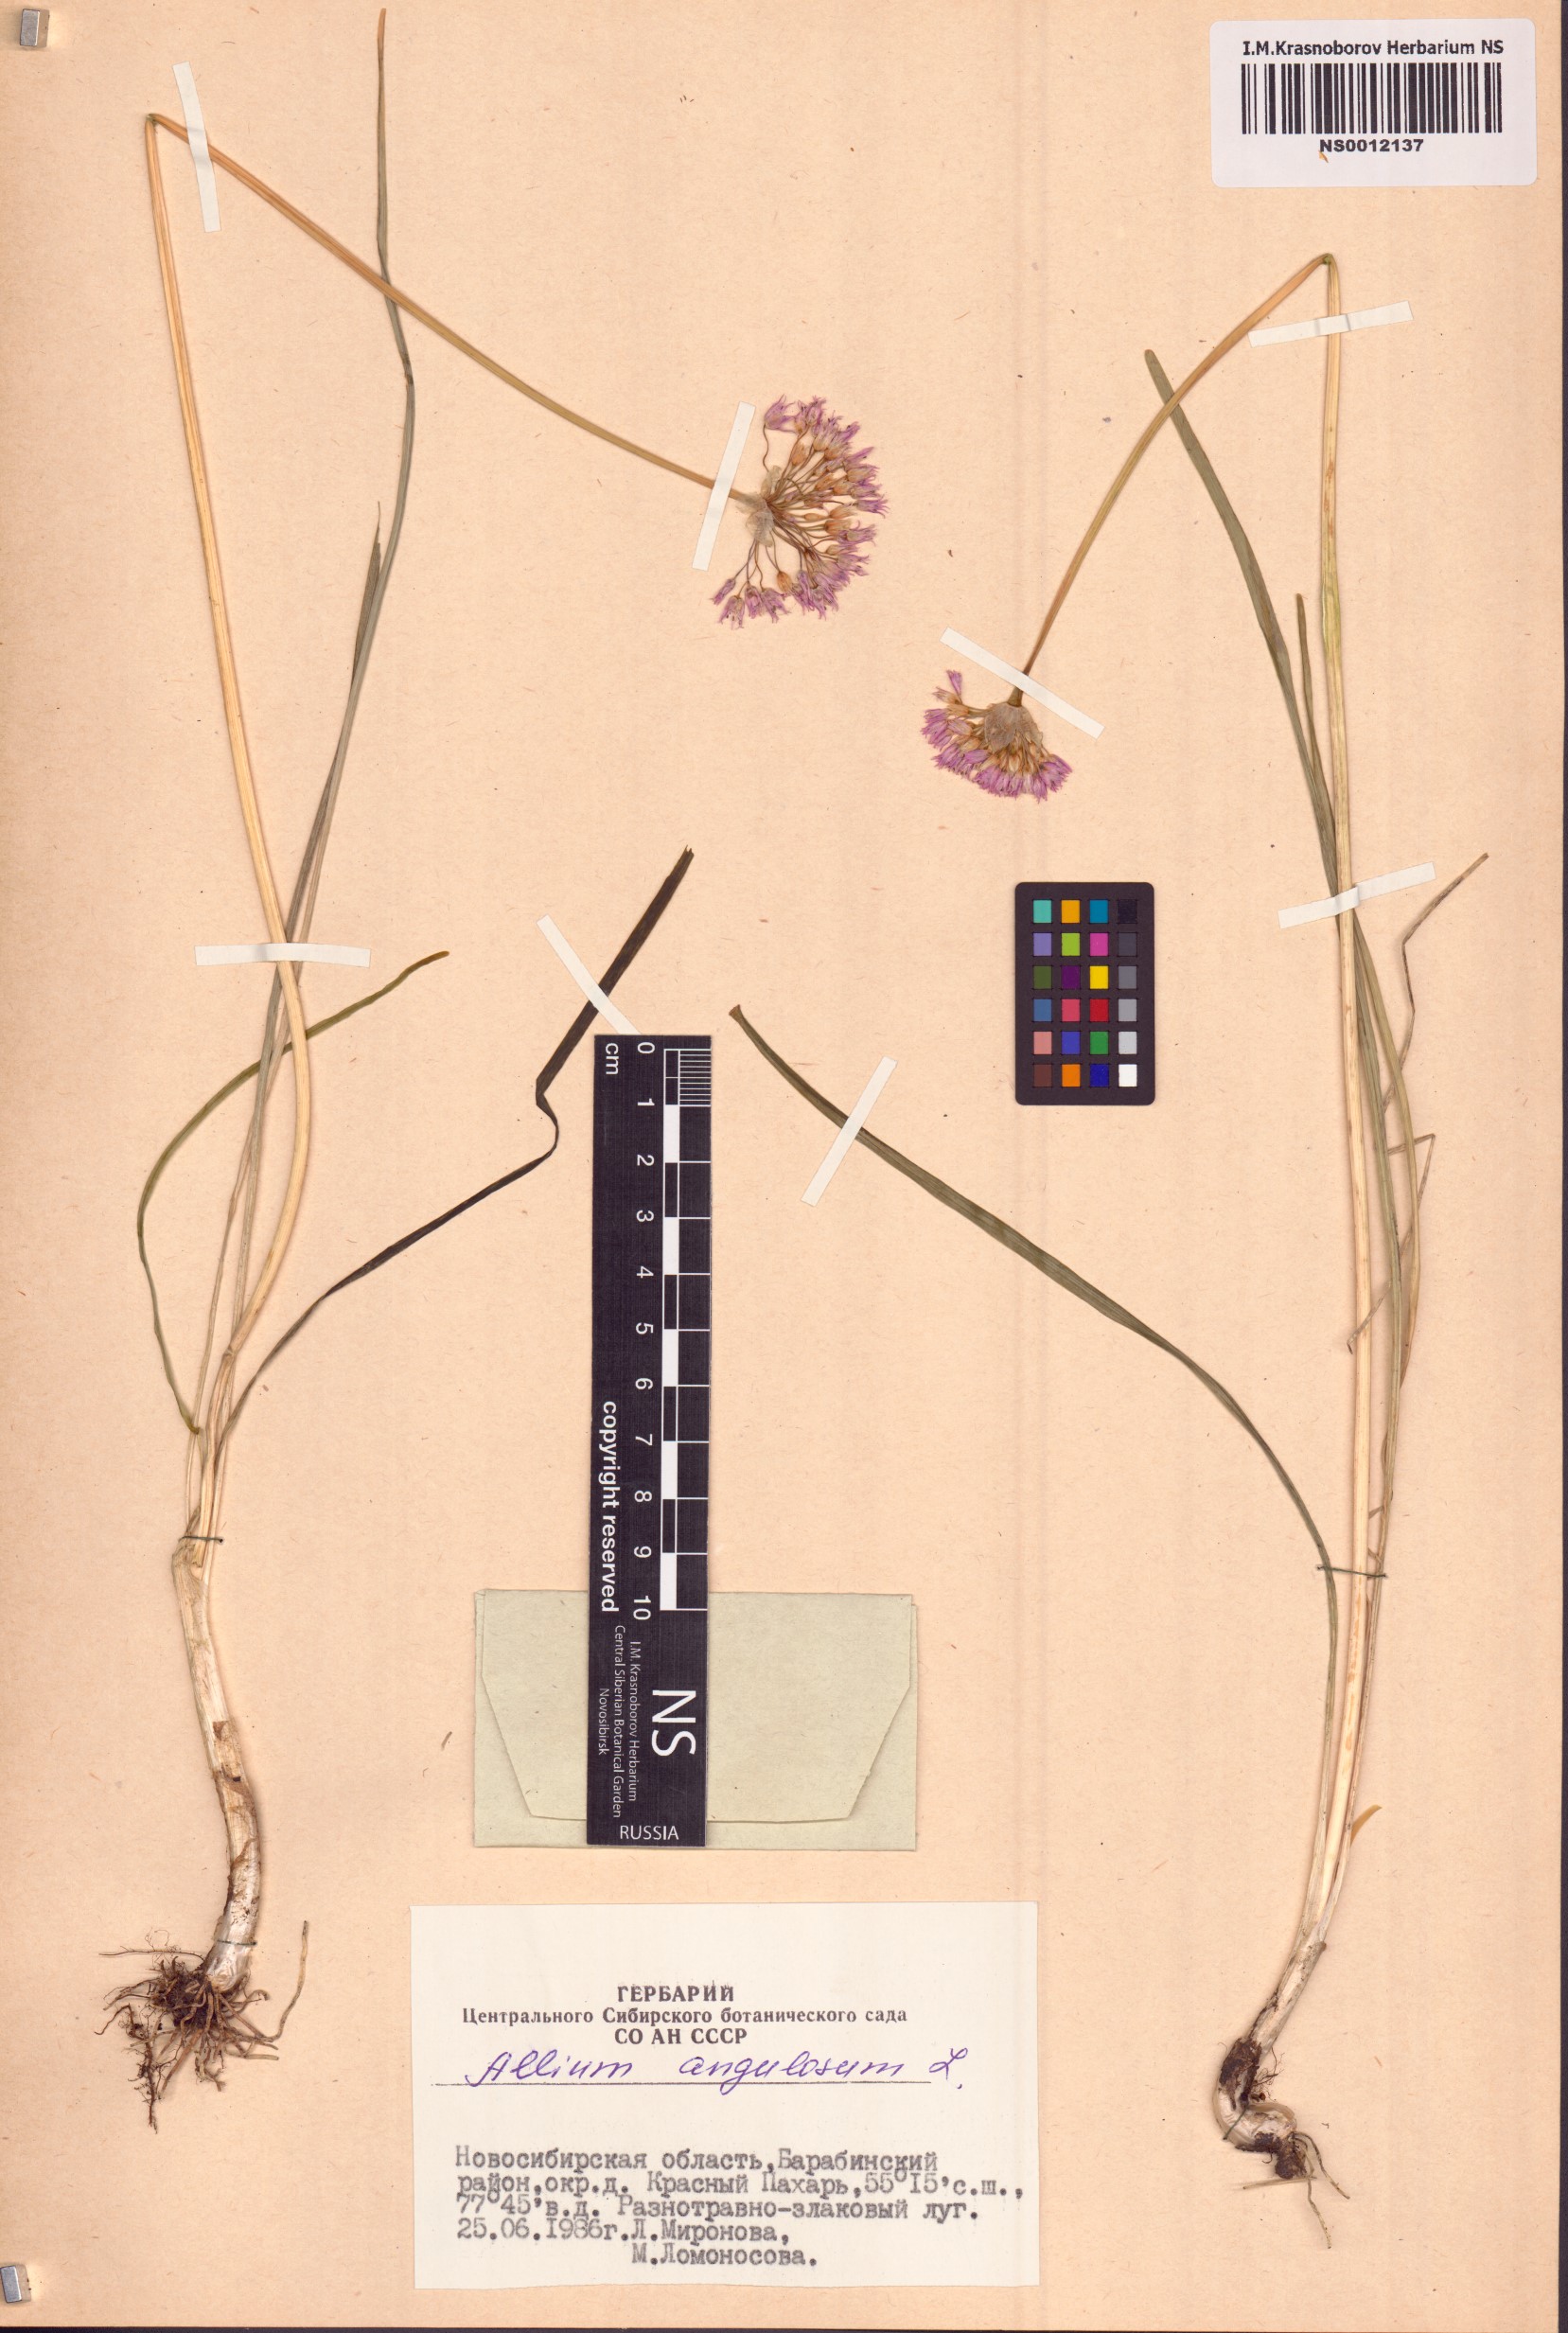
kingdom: Plantae
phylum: Tracheophyta
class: Liliopsida
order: Asparagales
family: Amaryllidaceae
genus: Allium
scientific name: Allium angulosum
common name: Mouse garlic
